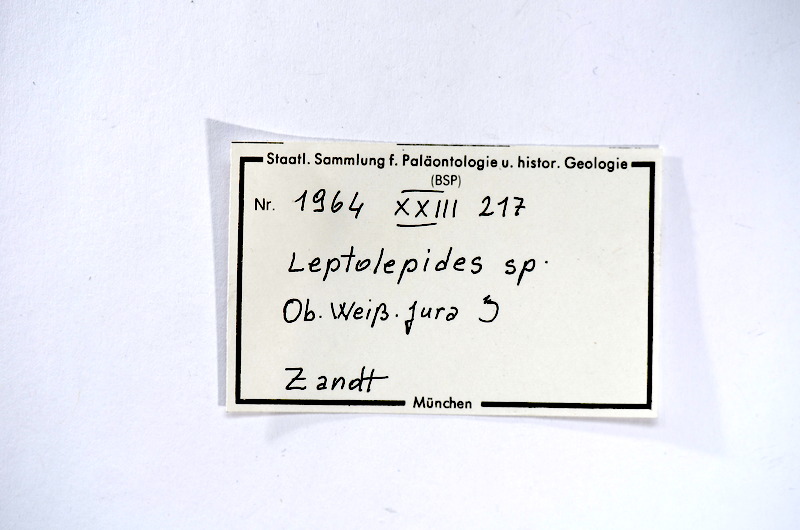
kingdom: Animalia
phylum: Chordata
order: Salmoniformes
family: Orthogonikleithridae
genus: Leptolepides
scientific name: Leptolepides
